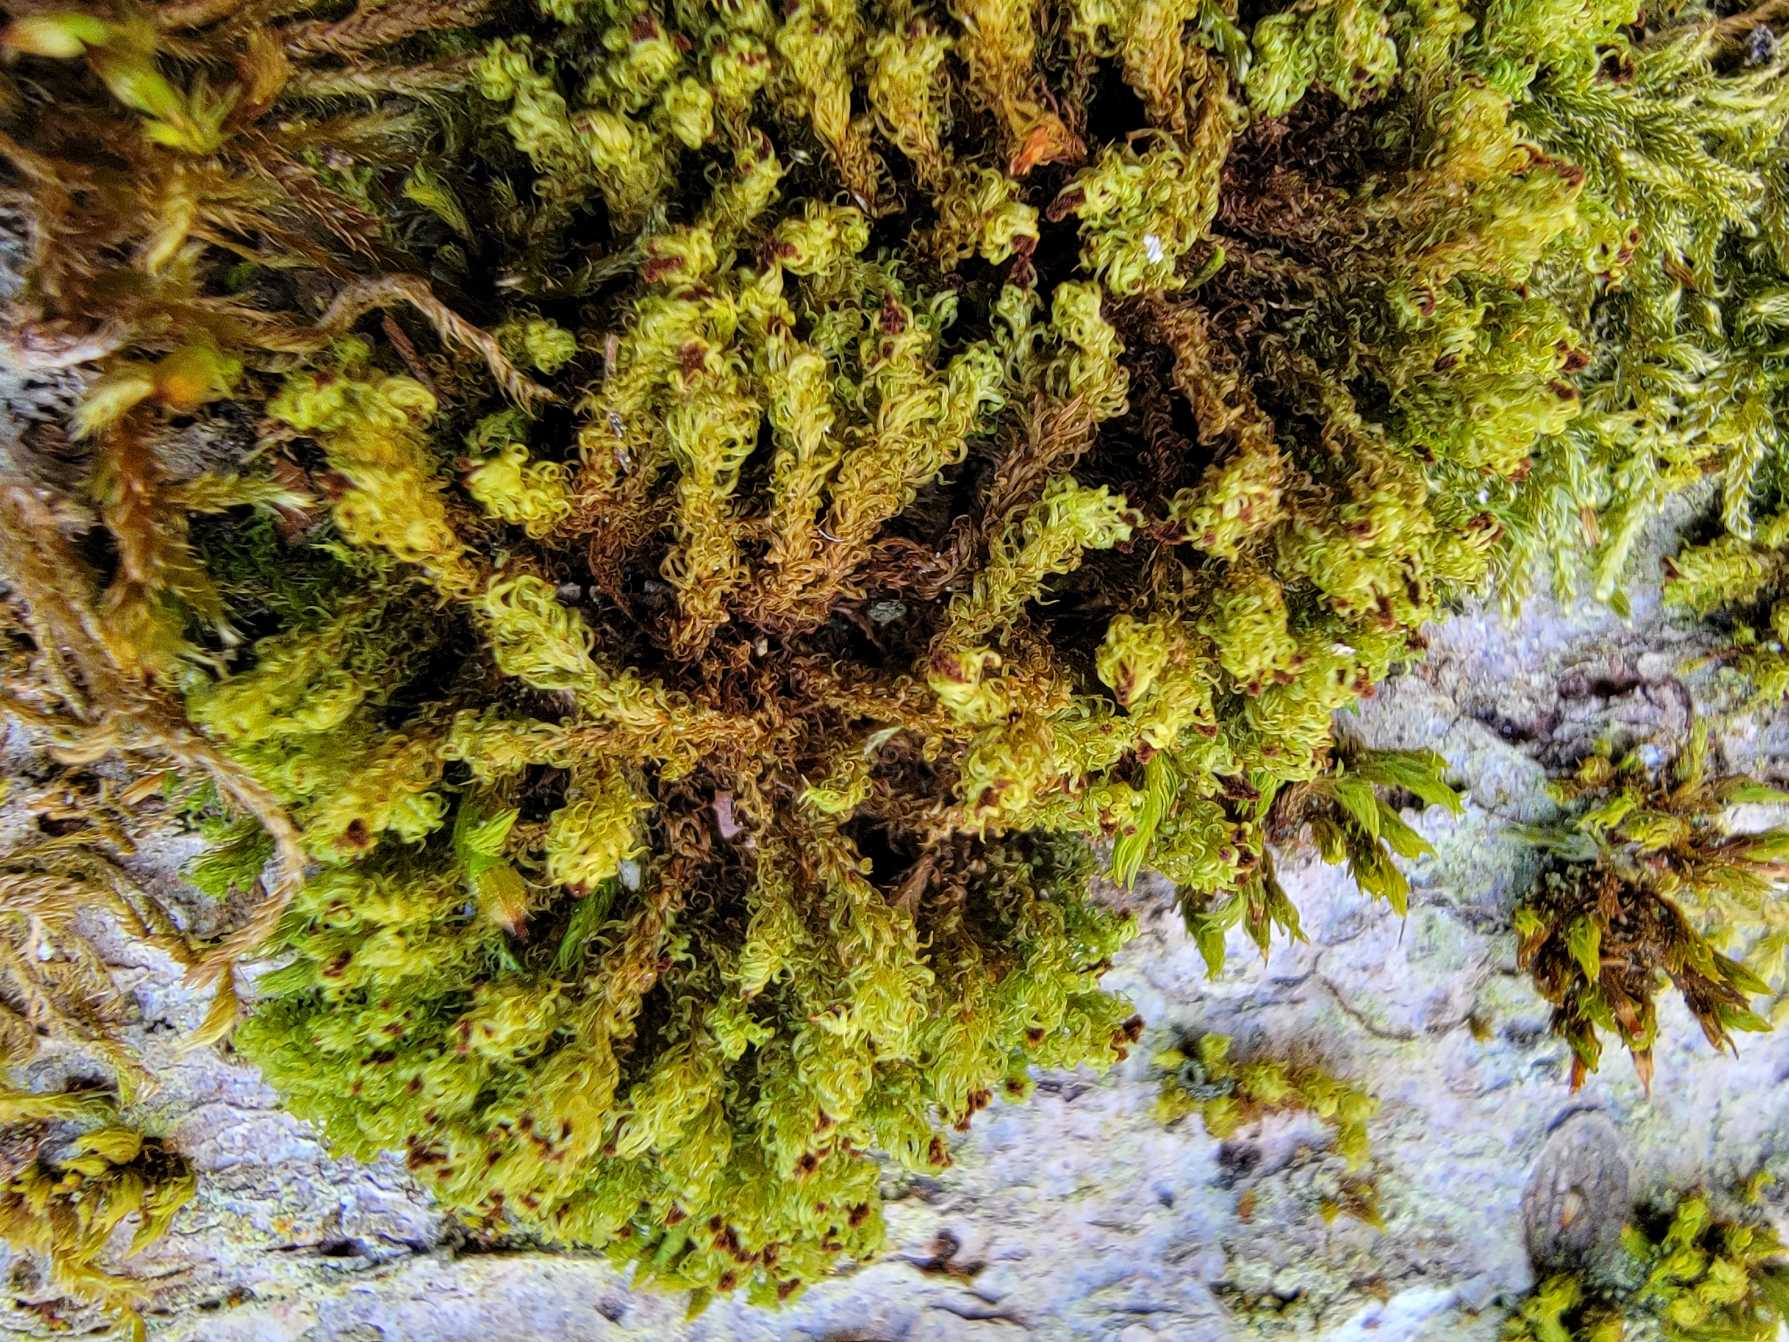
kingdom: Plantae
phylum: Bryophyta
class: Bryopsida
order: Orthotrichales
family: Orthotrichaceae
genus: Plenogemma
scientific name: Plenogemma phyllantha
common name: Stor låddenhætte
